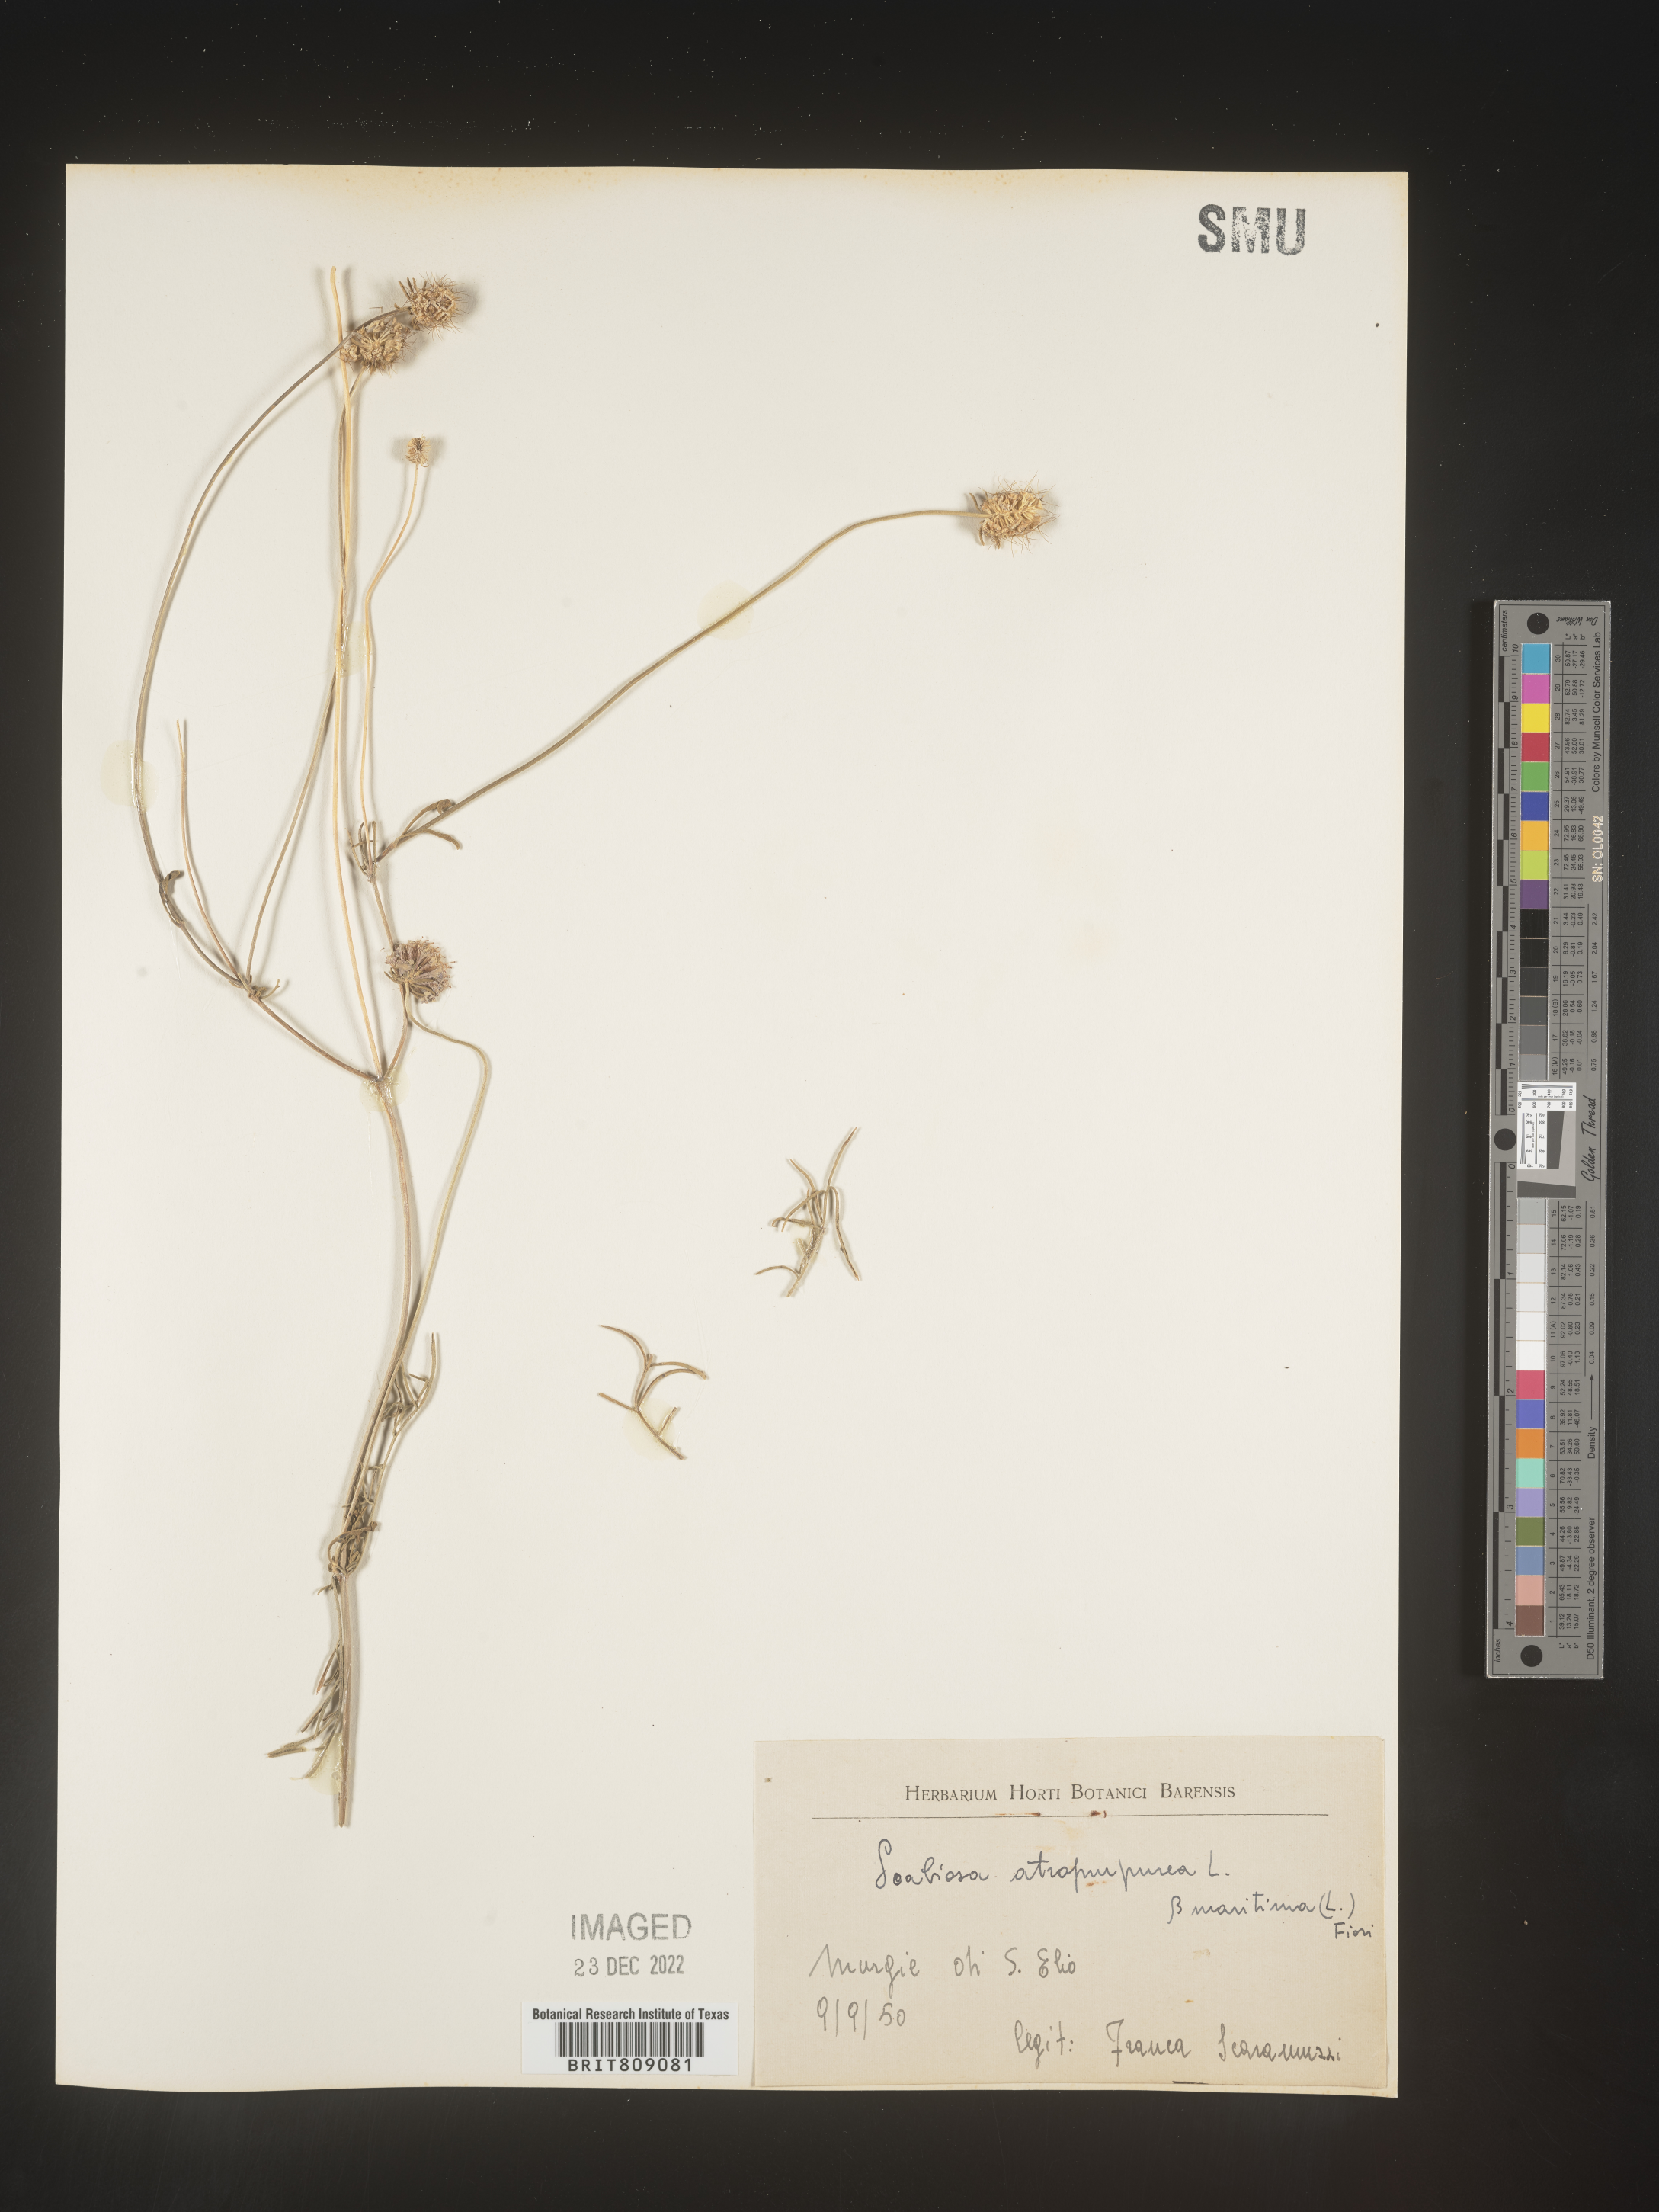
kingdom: Plantae
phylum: Tracheophyta
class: Magnoliopsida
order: Dipsacales
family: Caprifoliaceae
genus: Scabiosa
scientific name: Scabiosa
